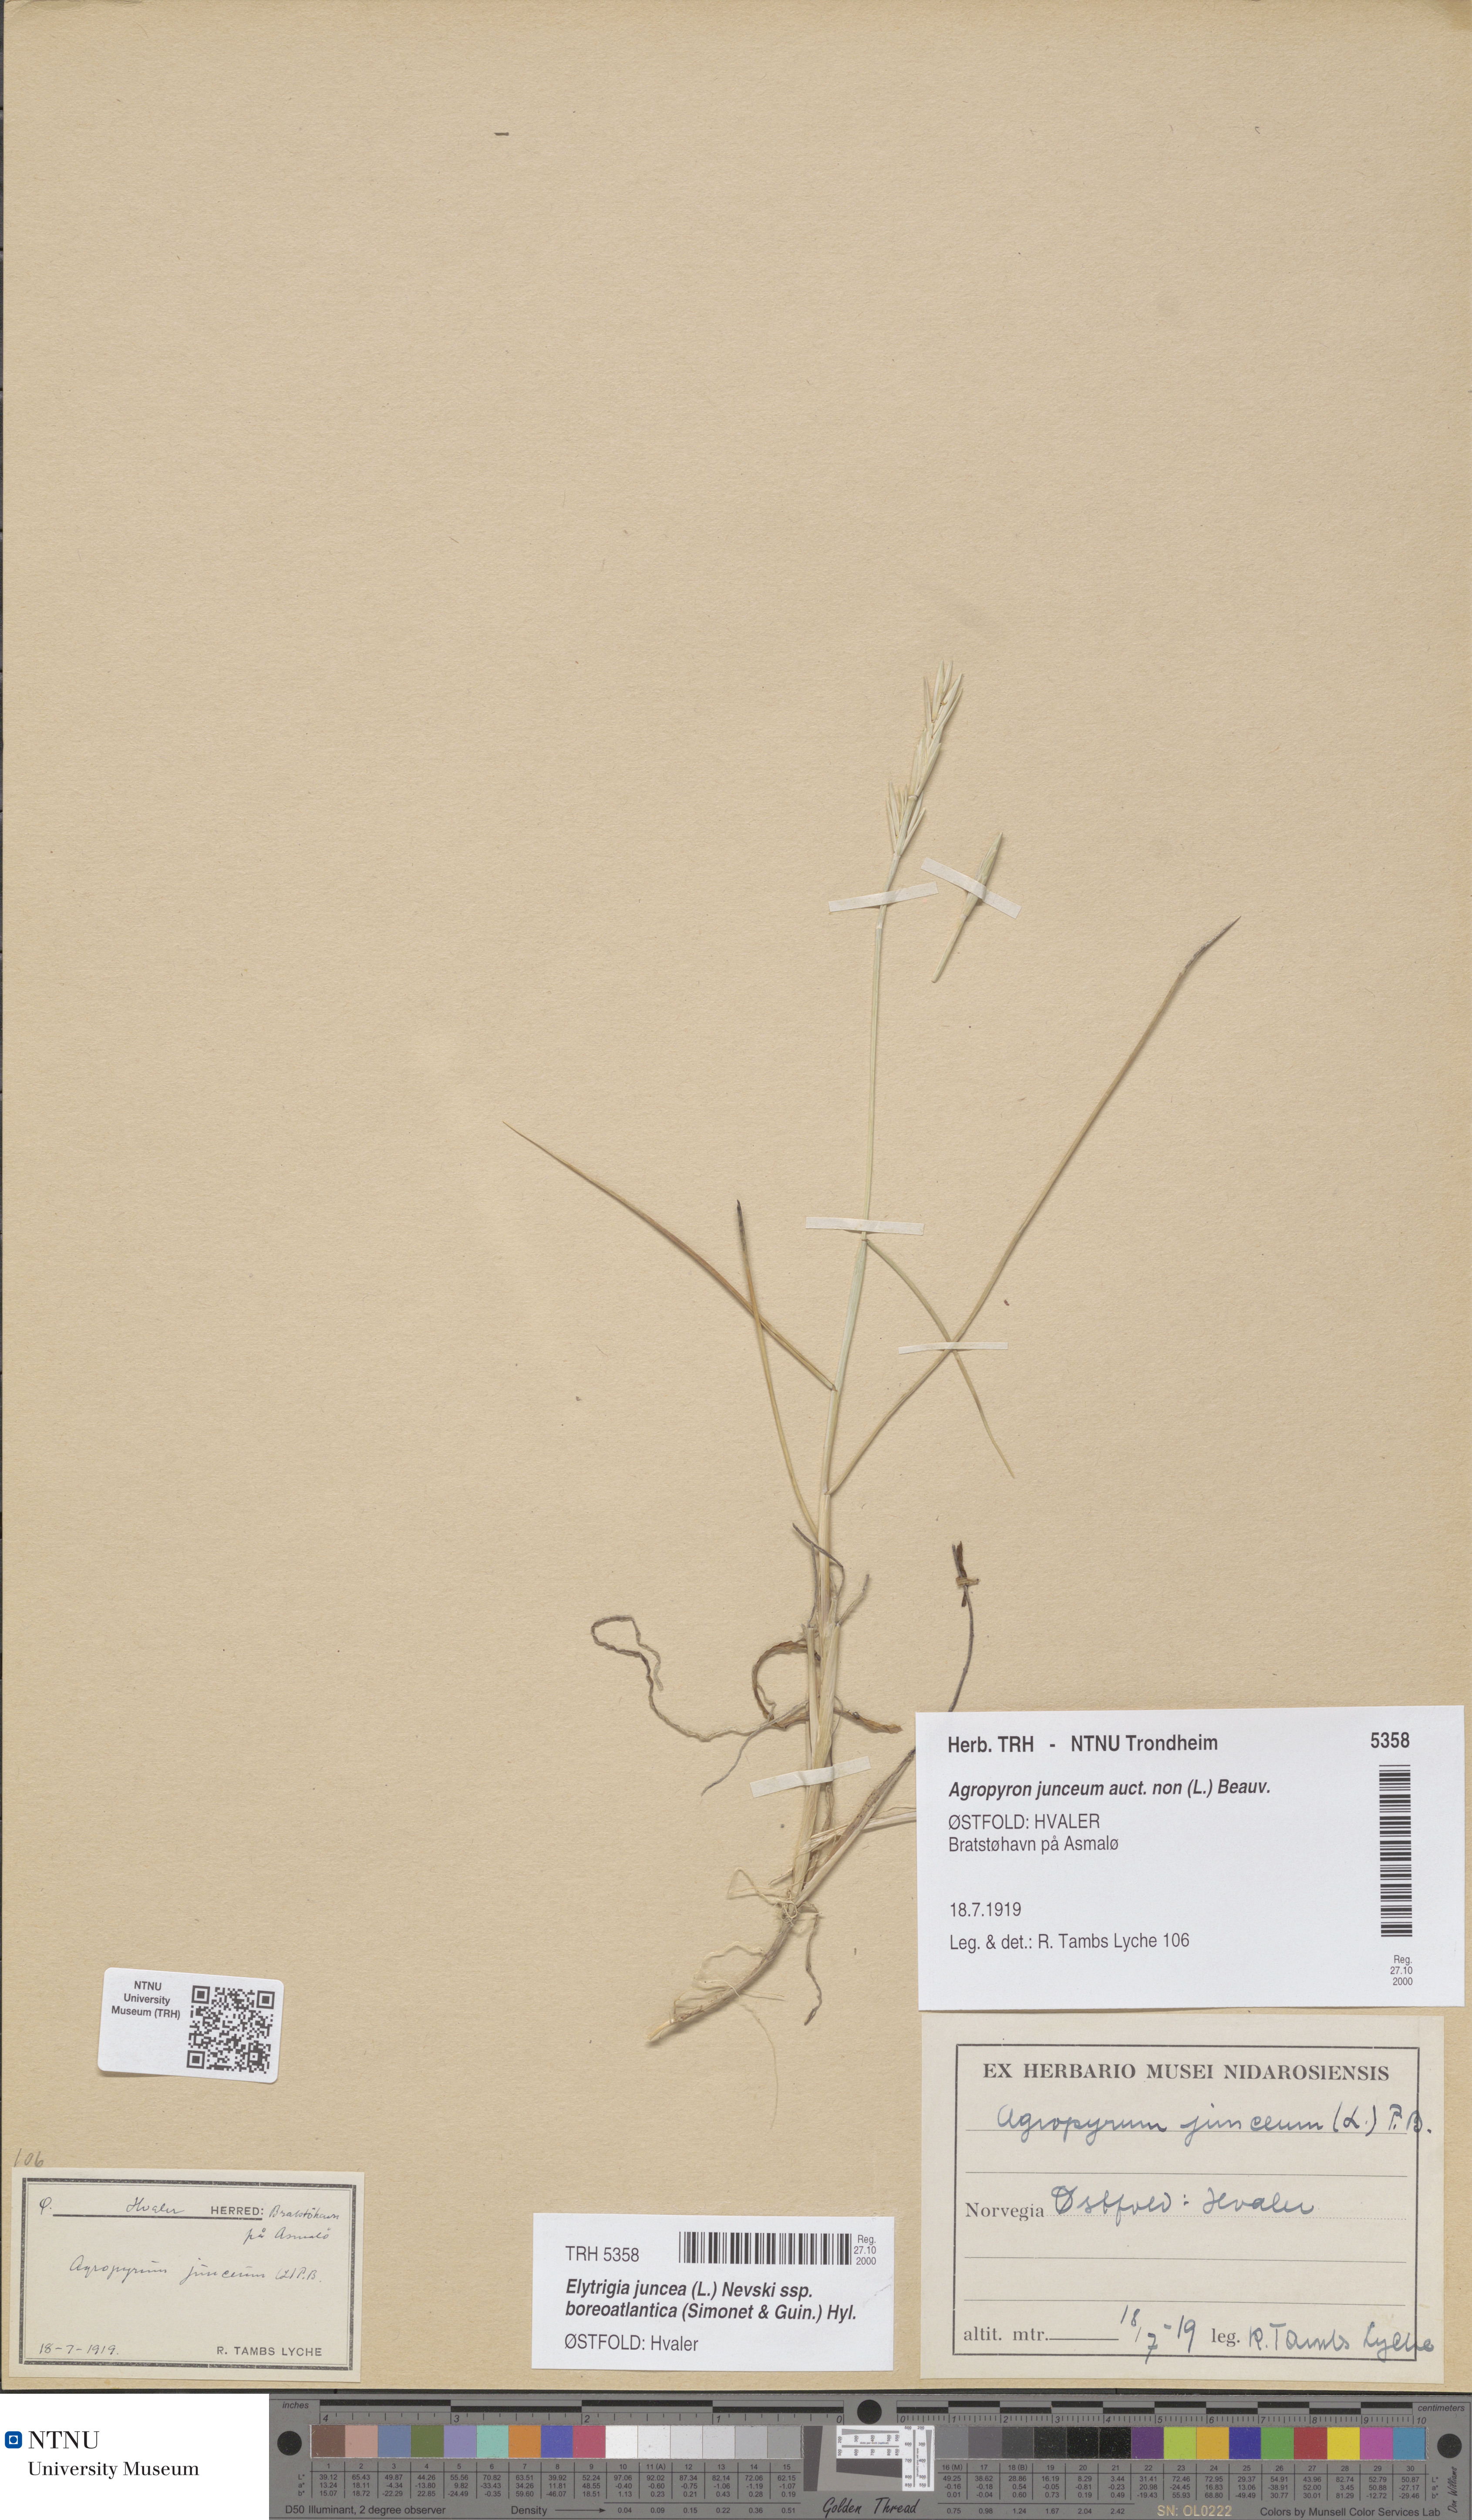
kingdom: Plantae
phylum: Tracheophyta
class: Liliopsida
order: Poales
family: Poaceae
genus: Thinopyrum
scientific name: Thinopyrum junceiforme
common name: Sea couch
